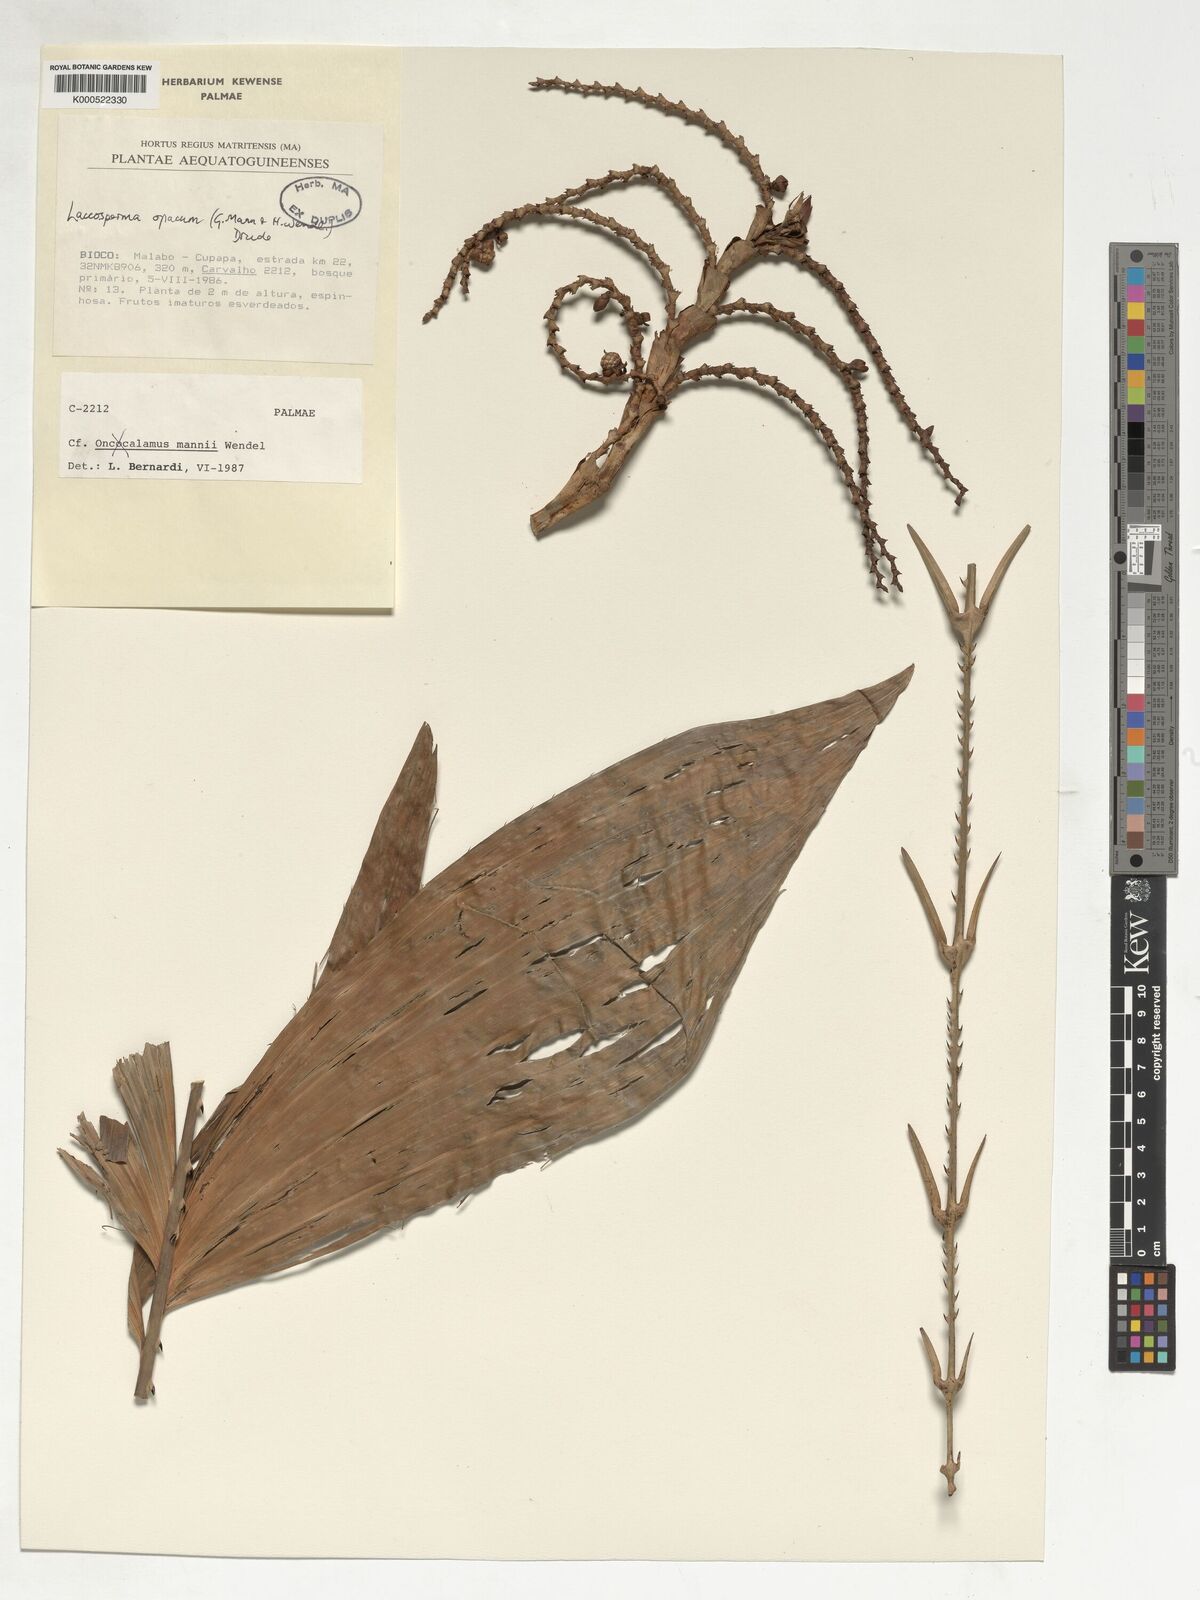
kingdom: Plantae
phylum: Tracheophyta
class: Liliopsida
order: Arecales
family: Arecaceae
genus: Laccosperma
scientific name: Laccosperma opacum
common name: Rattan
